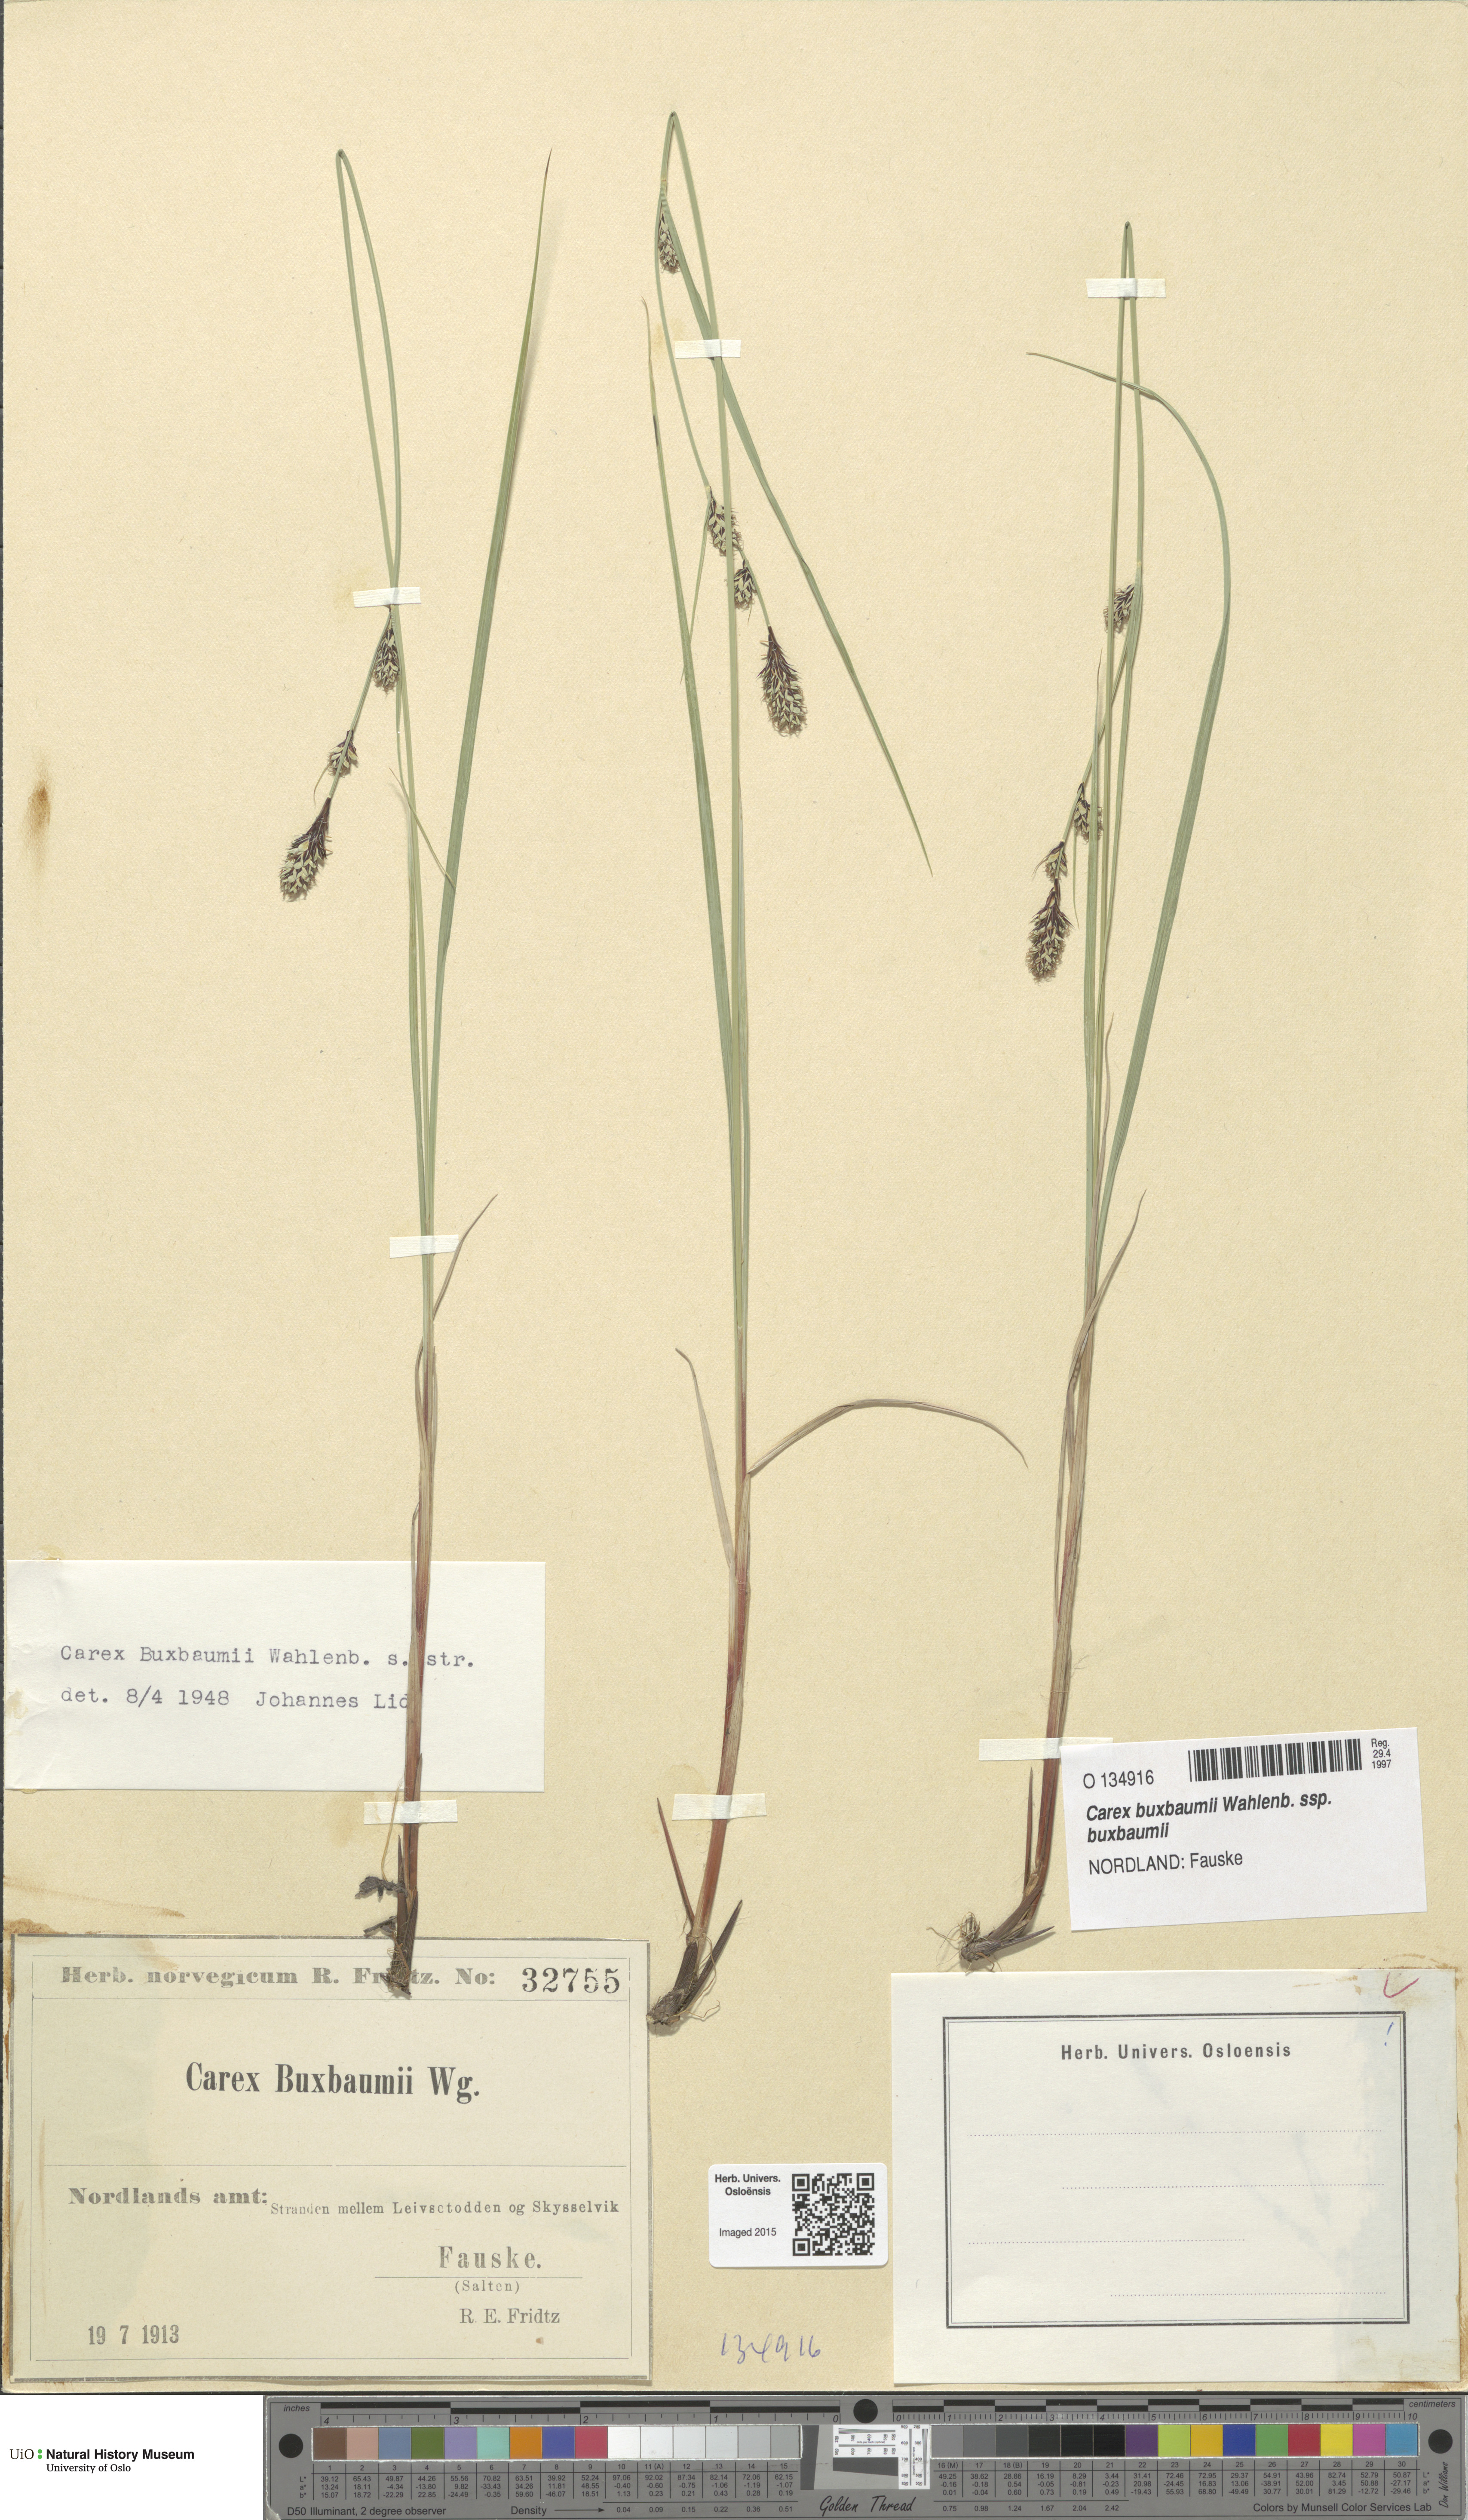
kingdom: Plantae
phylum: Tracheophyta
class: Liliopsida
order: Poales
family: Cyperaceae
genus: Carex
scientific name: Carex buxbaumii
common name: Club sedge
